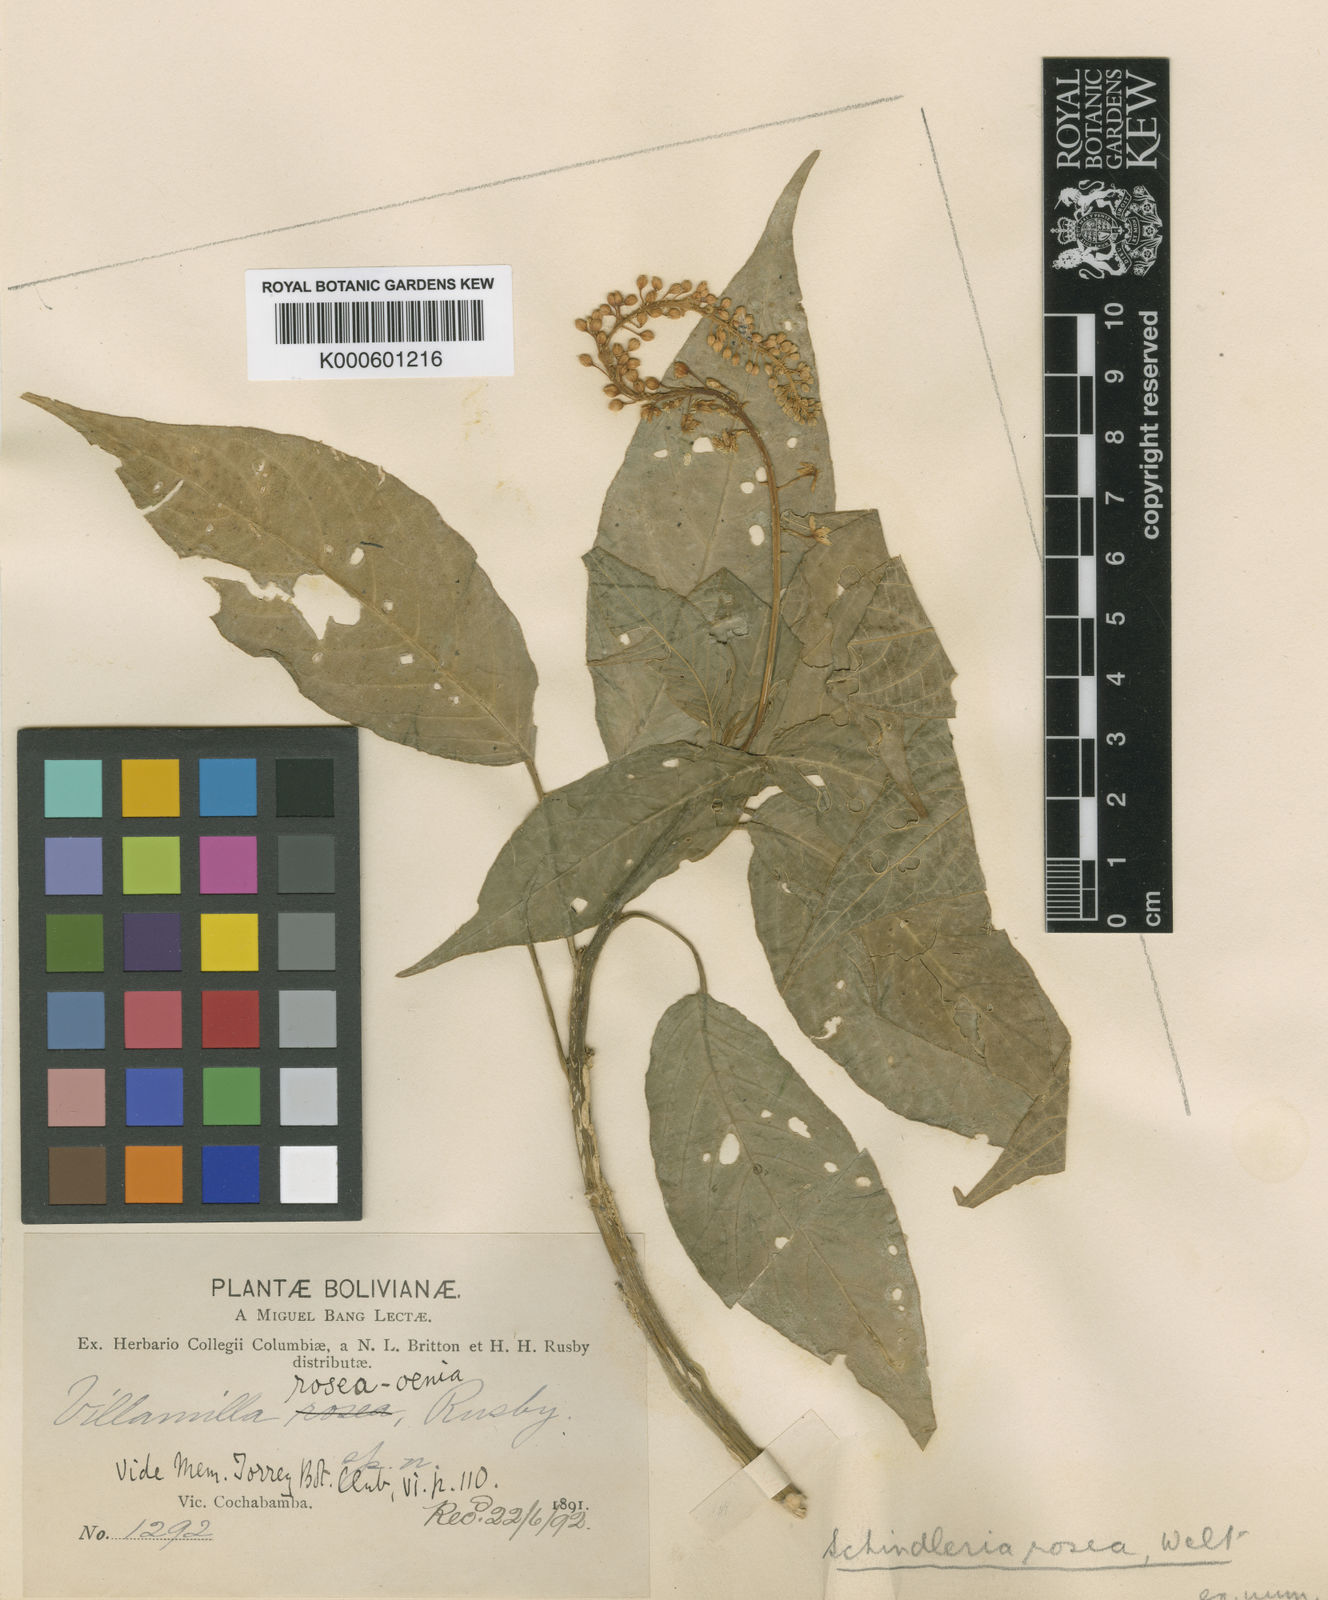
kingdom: Plantae
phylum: Tracheophyta
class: Magnoliopsida
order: Caryophyllales
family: Phytolaccaceae
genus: Schindleria
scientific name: Schindleria
